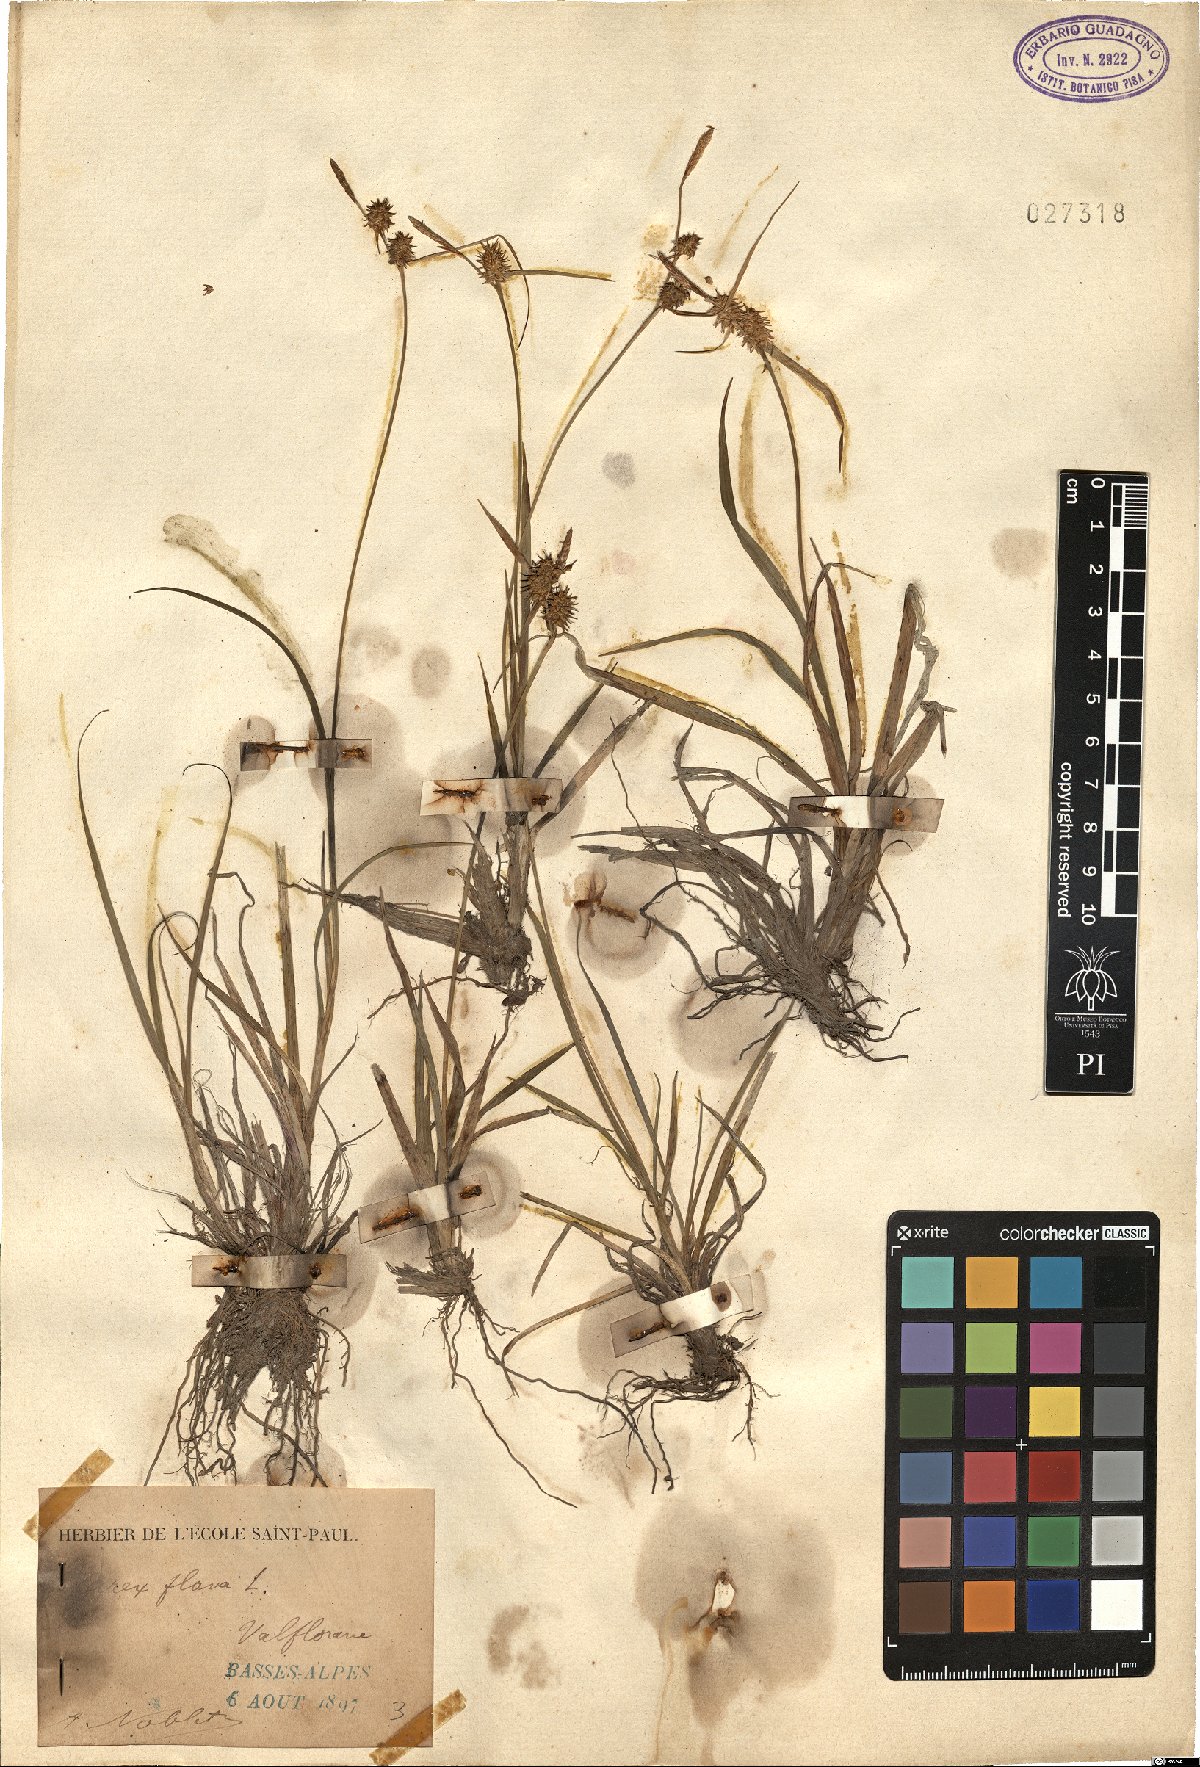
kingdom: Plantae
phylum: Tracheophyta
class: Liliopsida
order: Poales
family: Cyperaceae
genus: Carex
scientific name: Carex flava
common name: Large yellow-sedge
